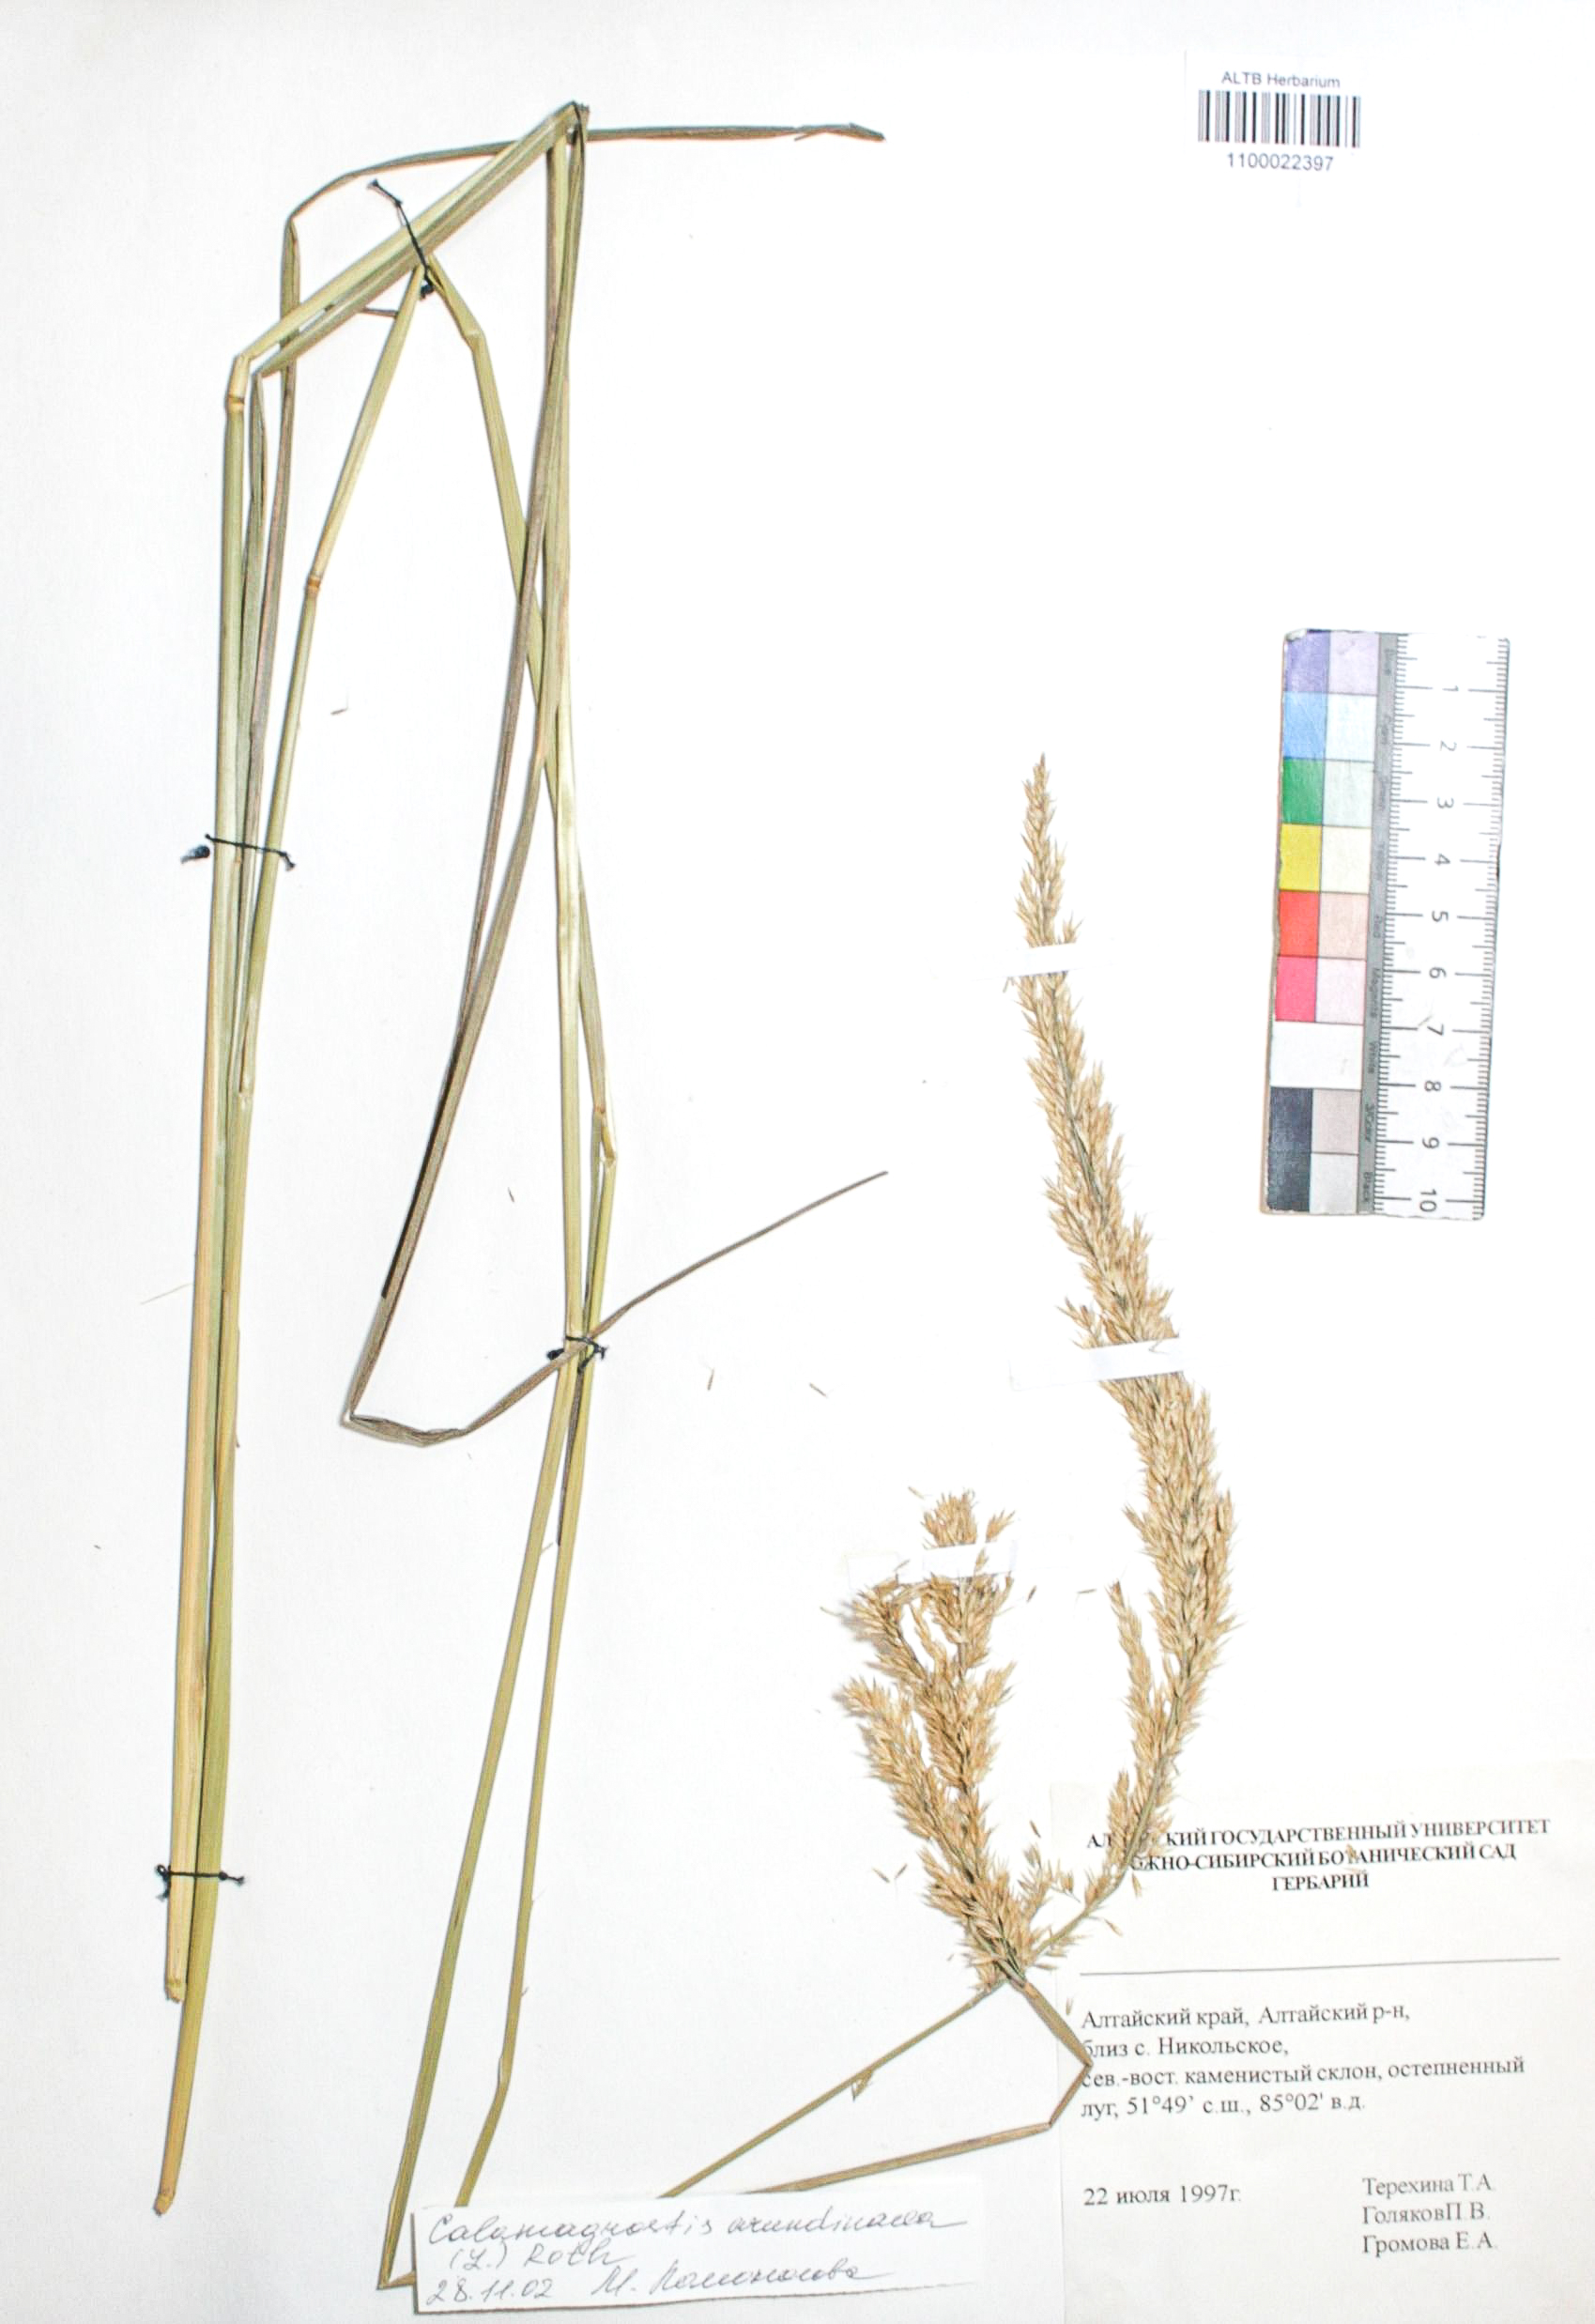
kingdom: Plantae
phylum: Tracheophyta
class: Liliopsida
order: Poales
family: Poaceae
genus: Calamagrostis
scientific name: Calamagrostis arundinacea
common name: Metskastik
